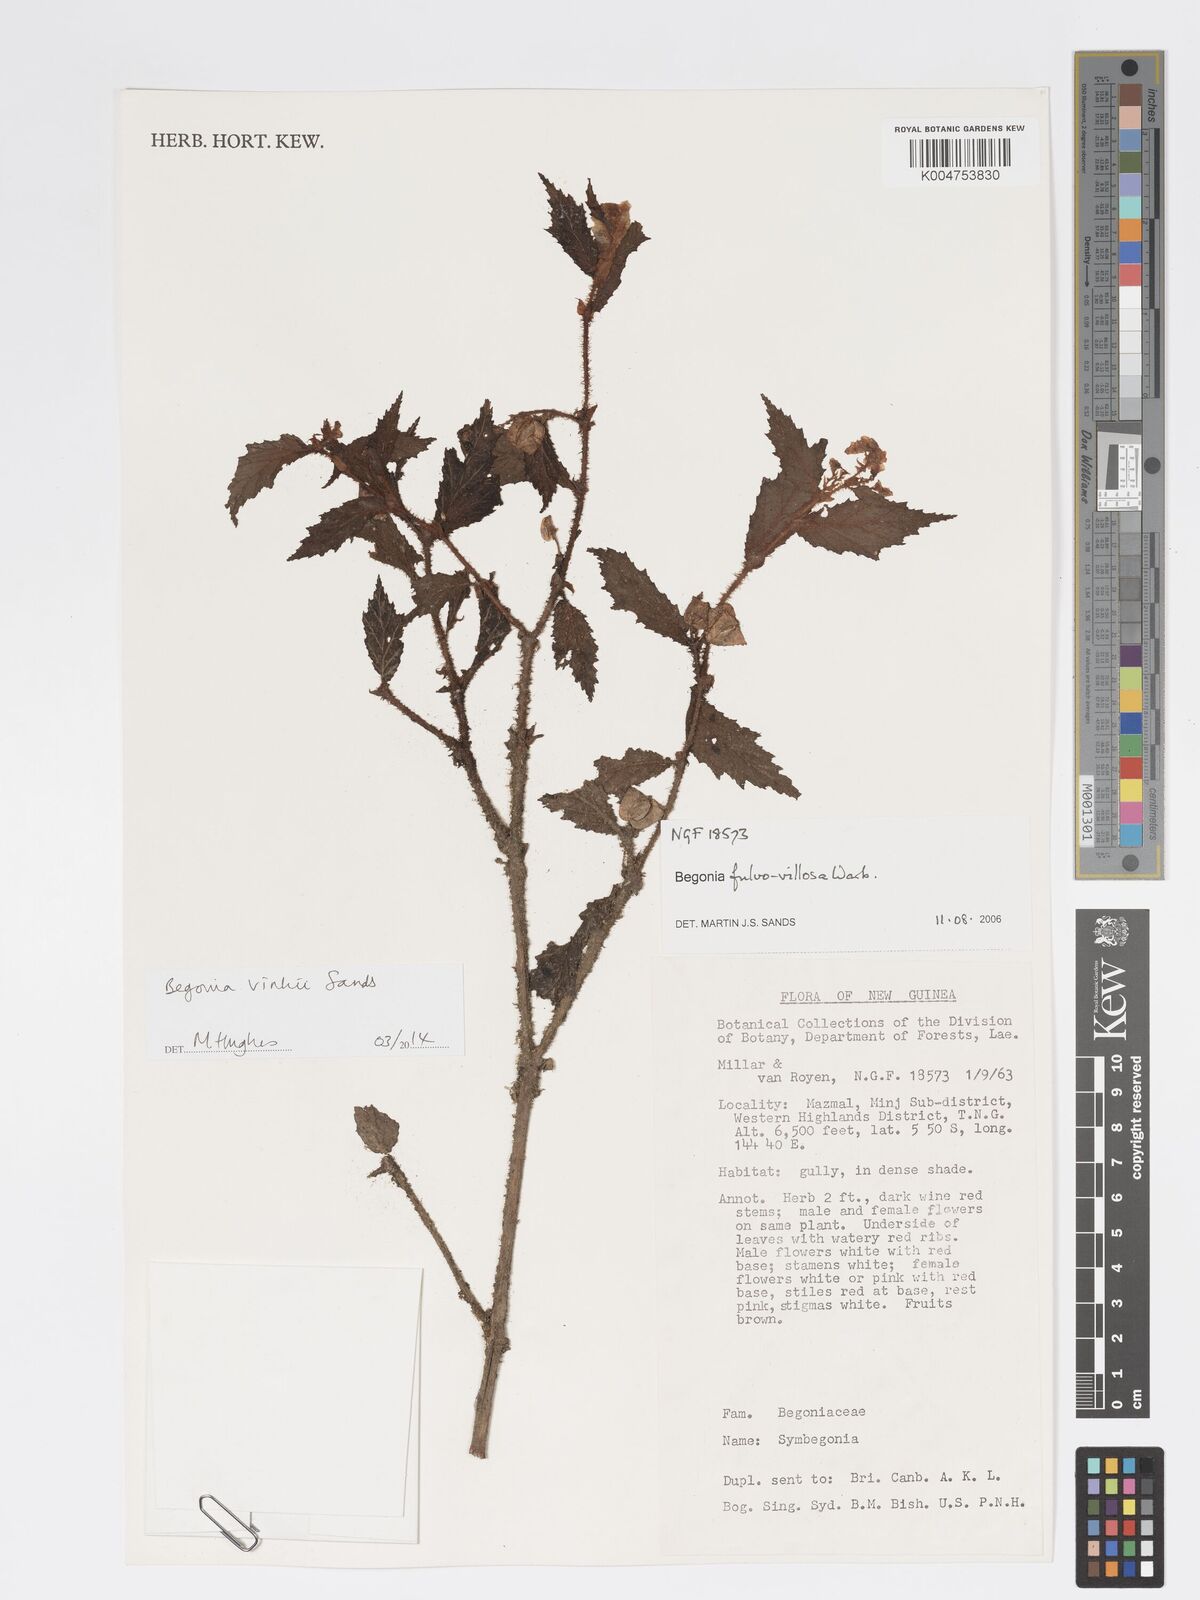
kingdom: Plantae
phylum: Tracheophyta
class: Magnoliopsida
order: Cucurbitales
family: Begoniaceae
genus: Begonia
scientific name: Begonia vinkii
